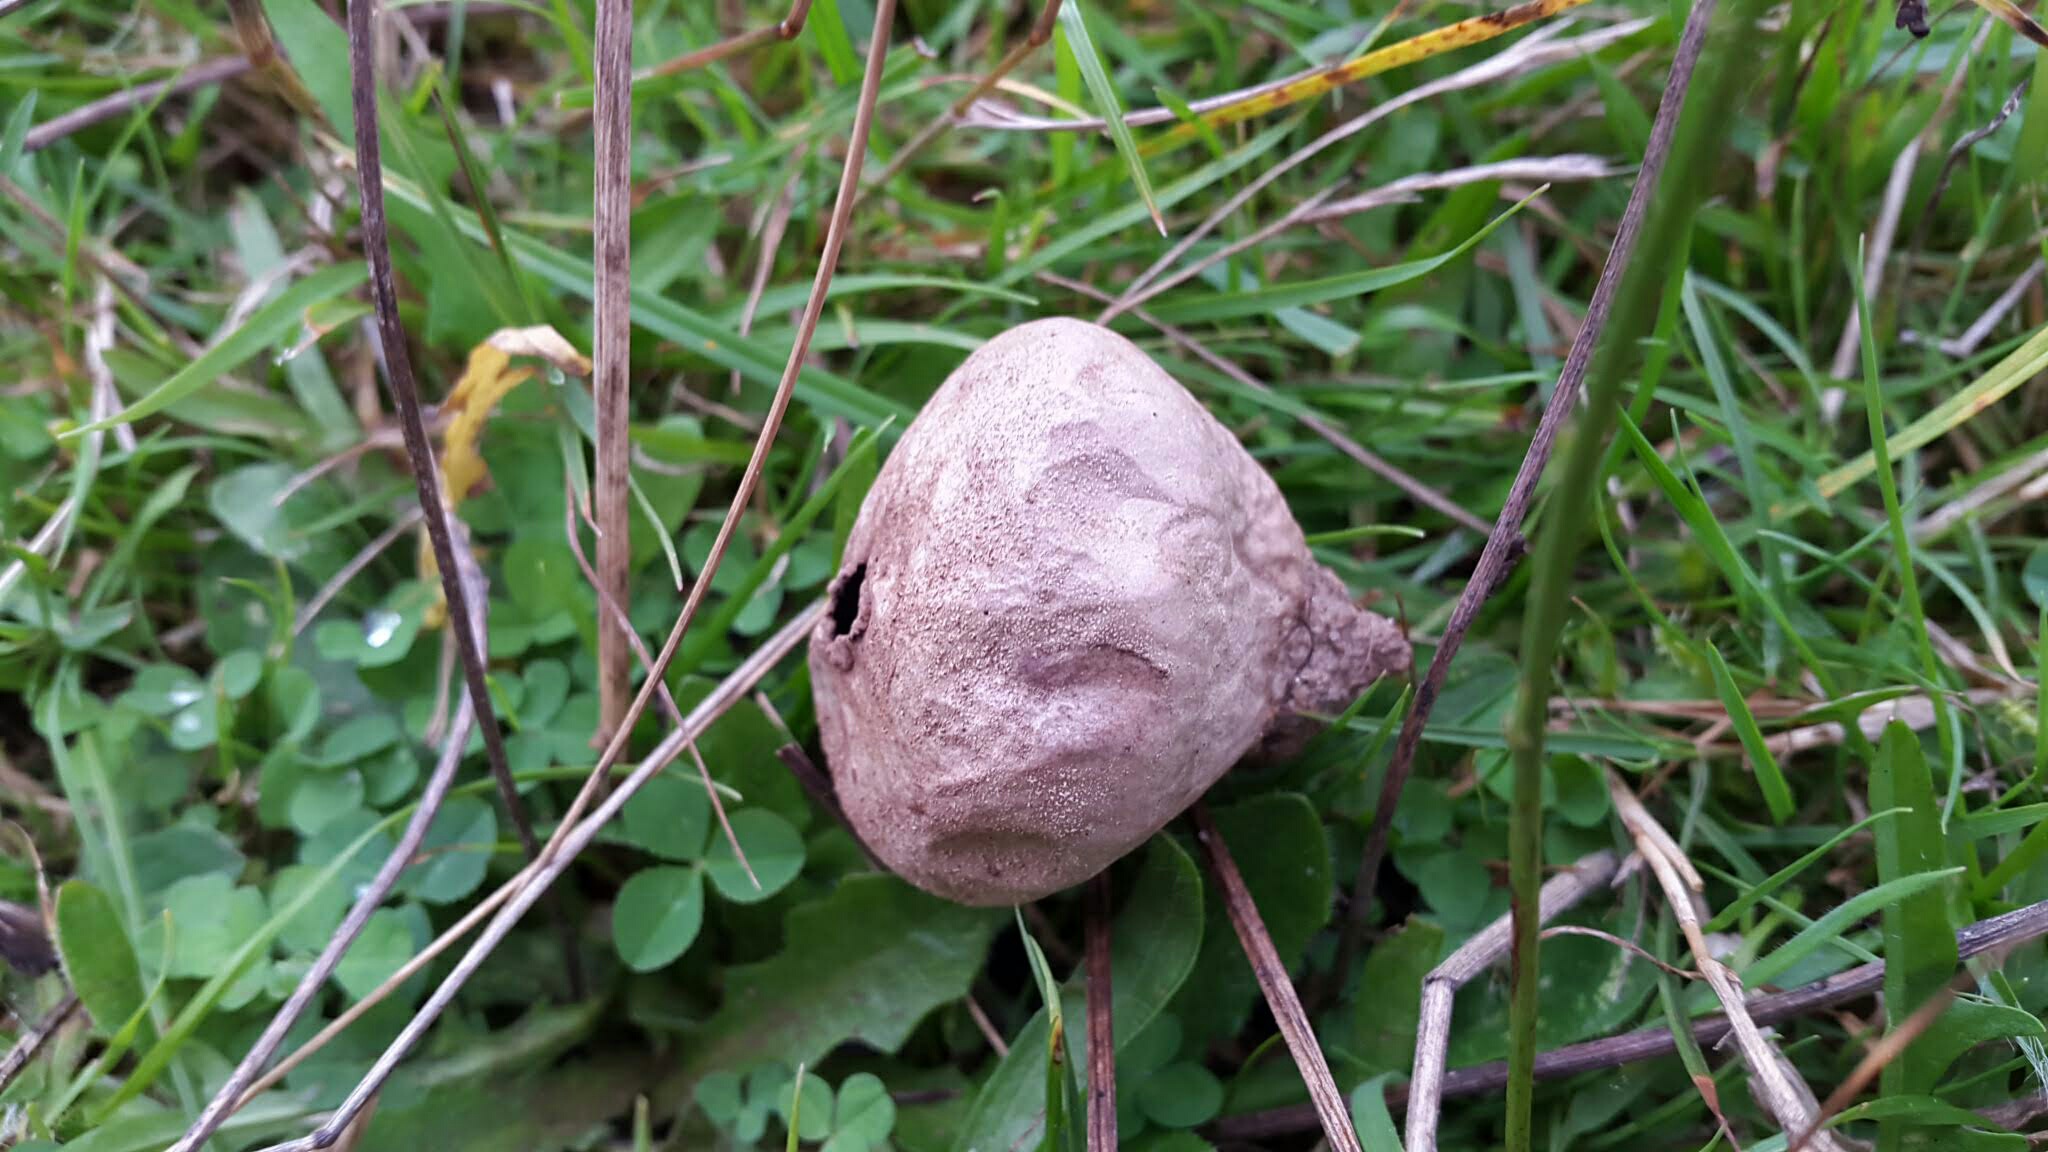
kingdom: Fungi
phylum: Basidiomycota
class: Agaricomycetes
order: Agaricales
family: Lycoperdaceae
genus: Lycoperdon
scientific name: Lycoperdon pratense
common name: flad støvbold
